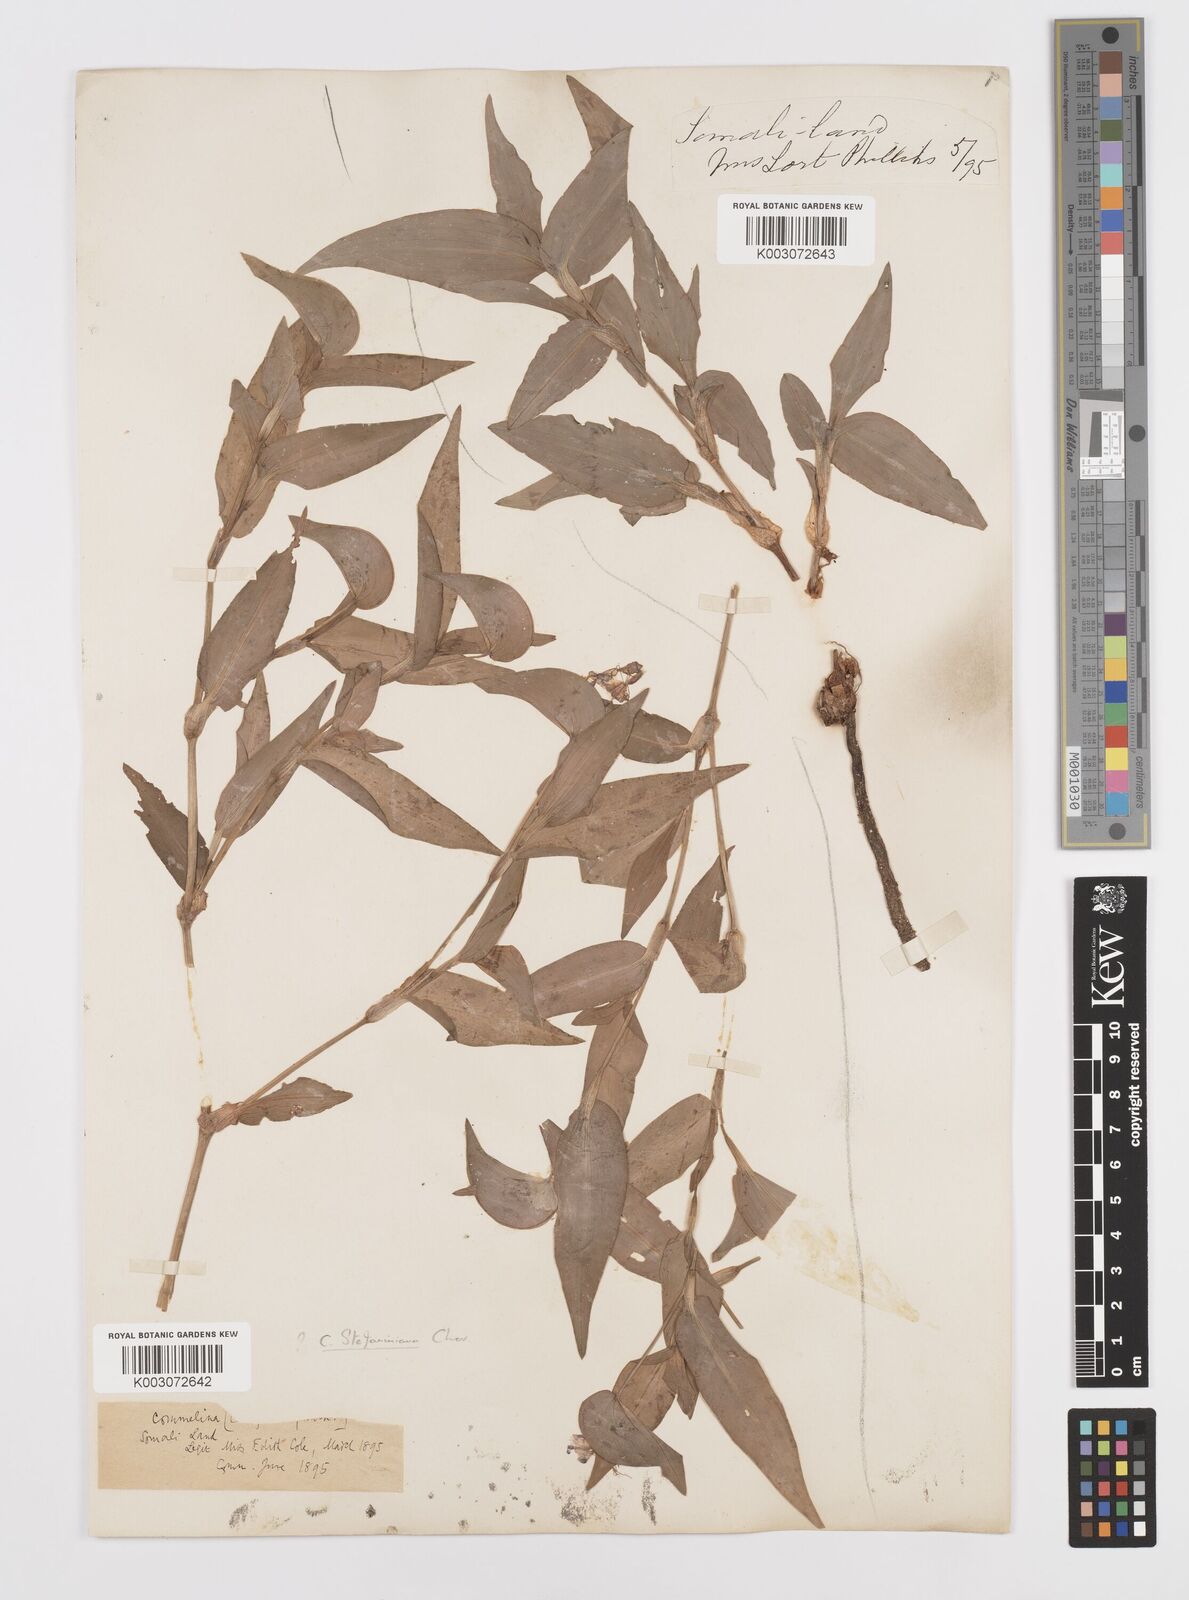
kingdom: Plantae
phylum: Tracheophyta
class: Liliopsida
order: Commelinales
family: Commelinaceae
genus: Commelina
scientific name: Commelina stefaniniana
